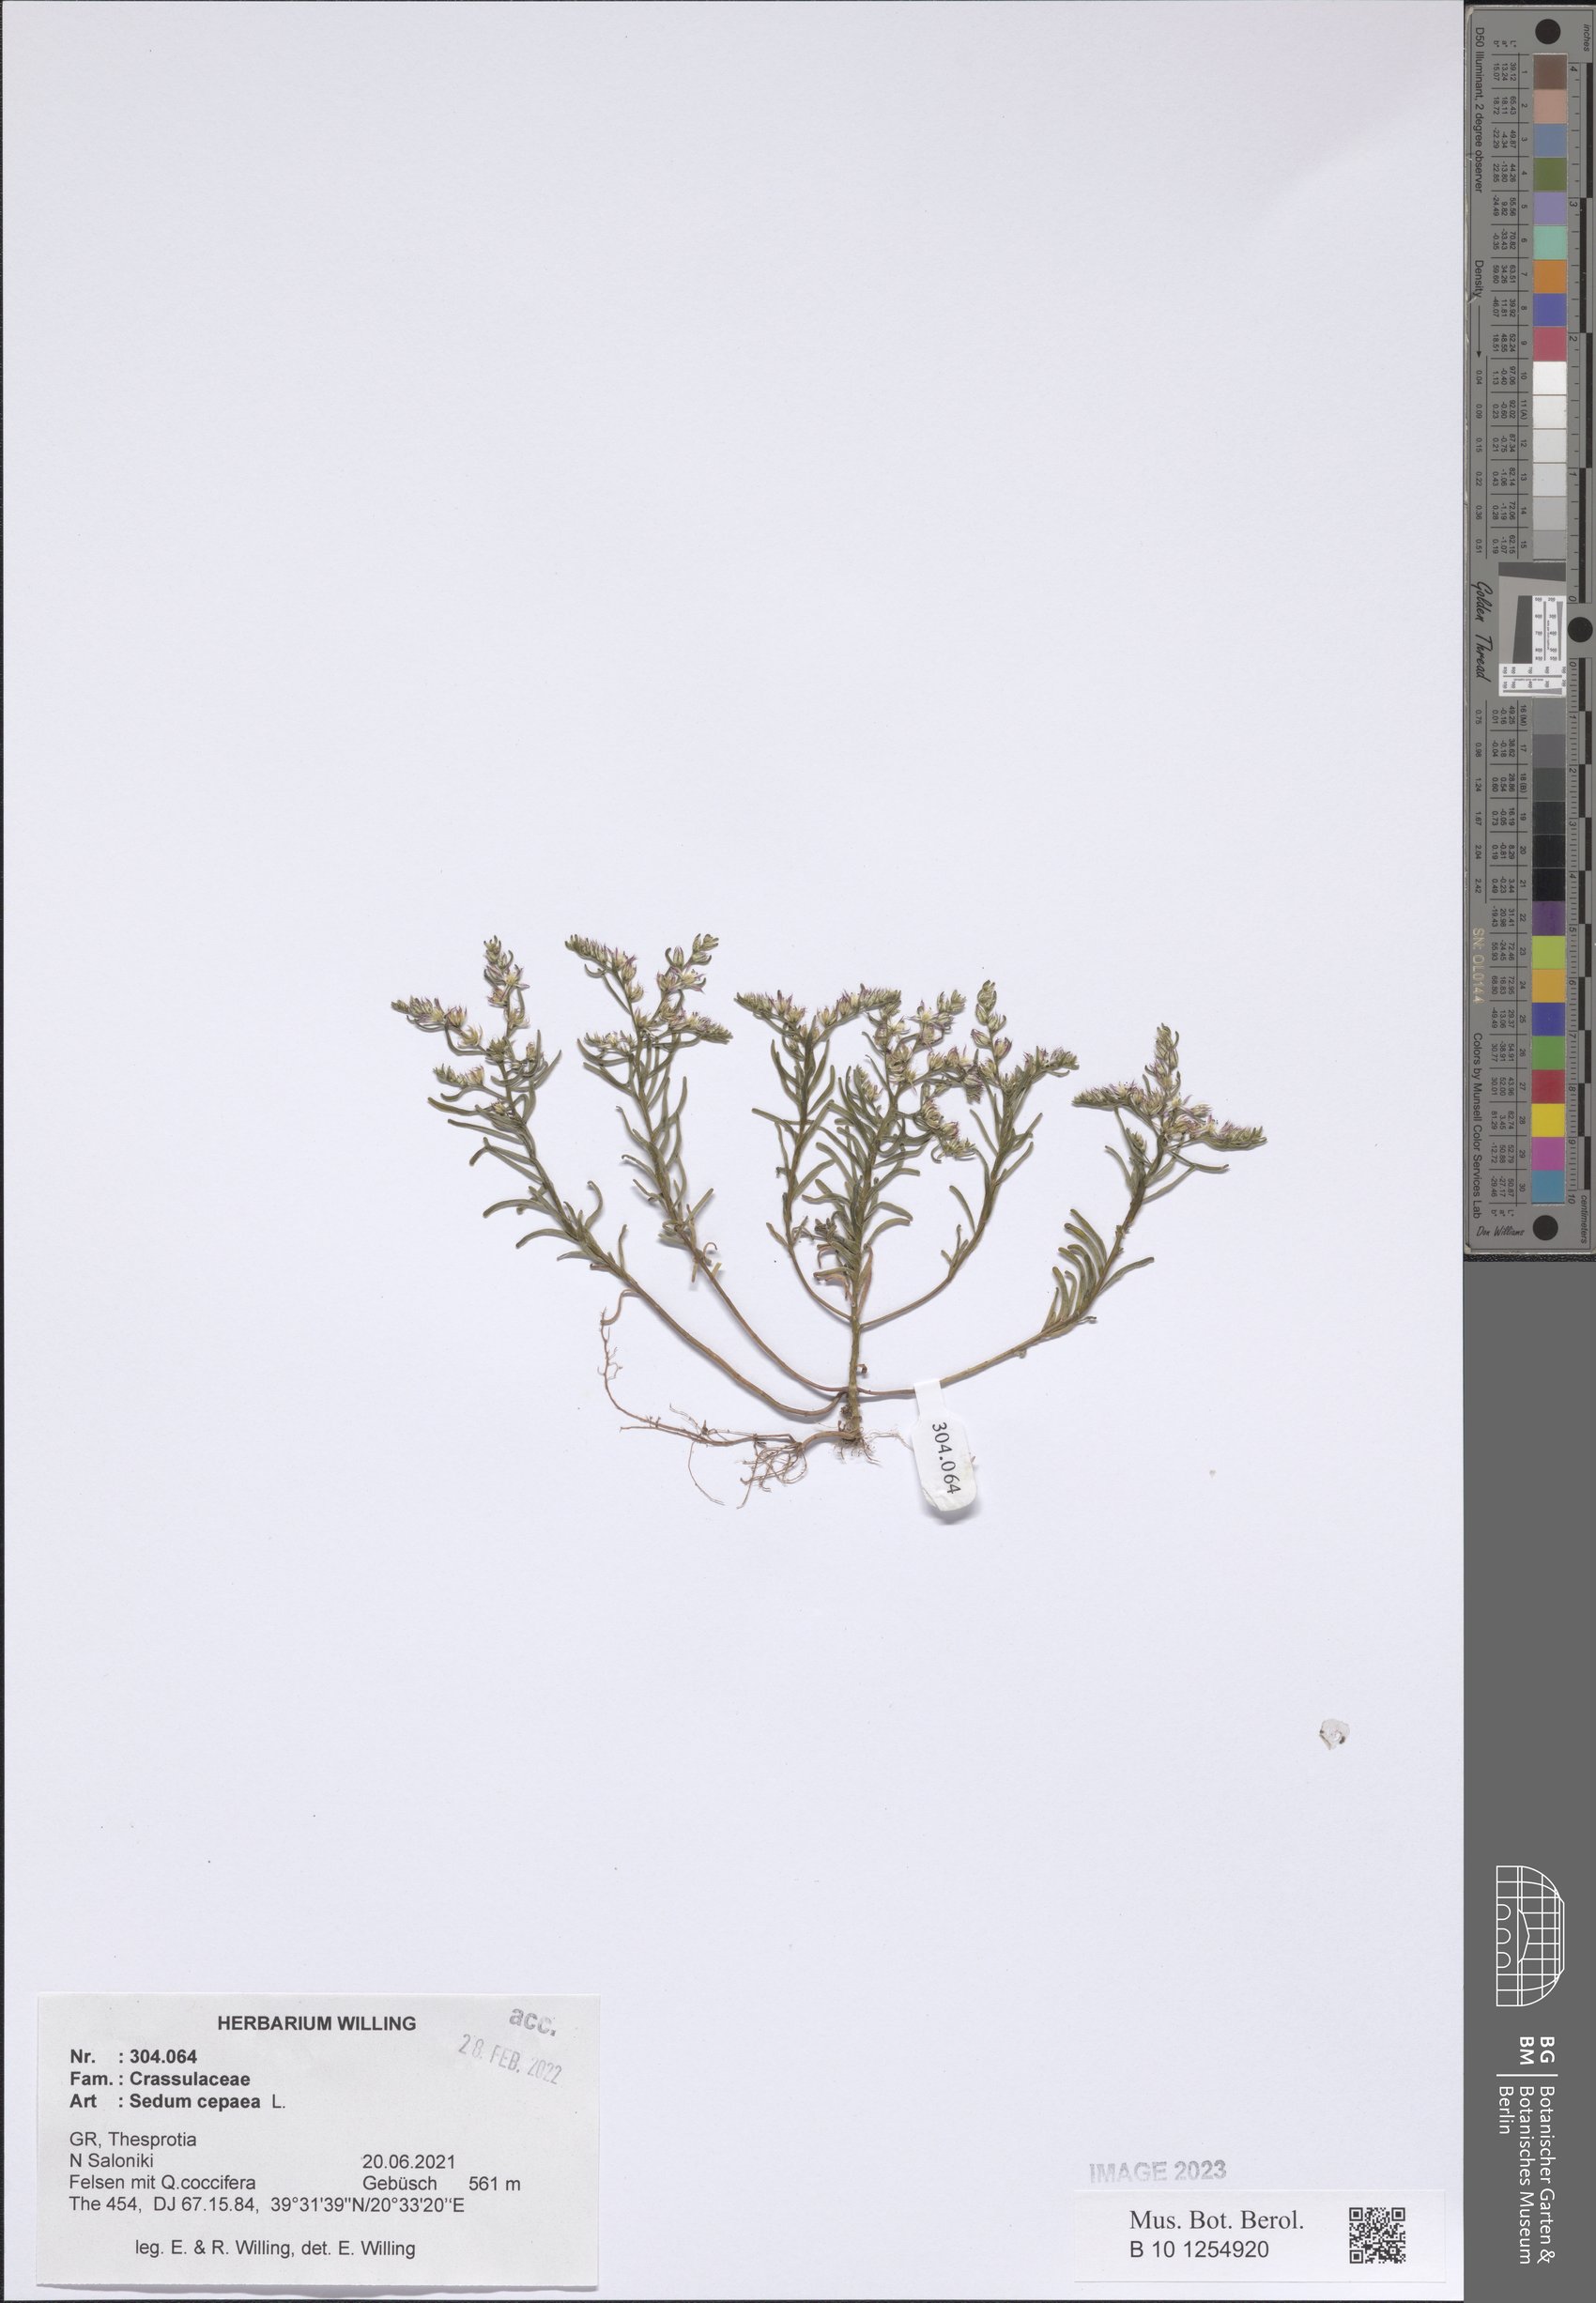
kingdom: Plantae
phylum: Tracheophyta
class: Magnoliopsida
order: Saxifragales
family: Crassulaceae
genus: Sedum
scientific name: Sedum cepaea
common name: Pink stonecrop
